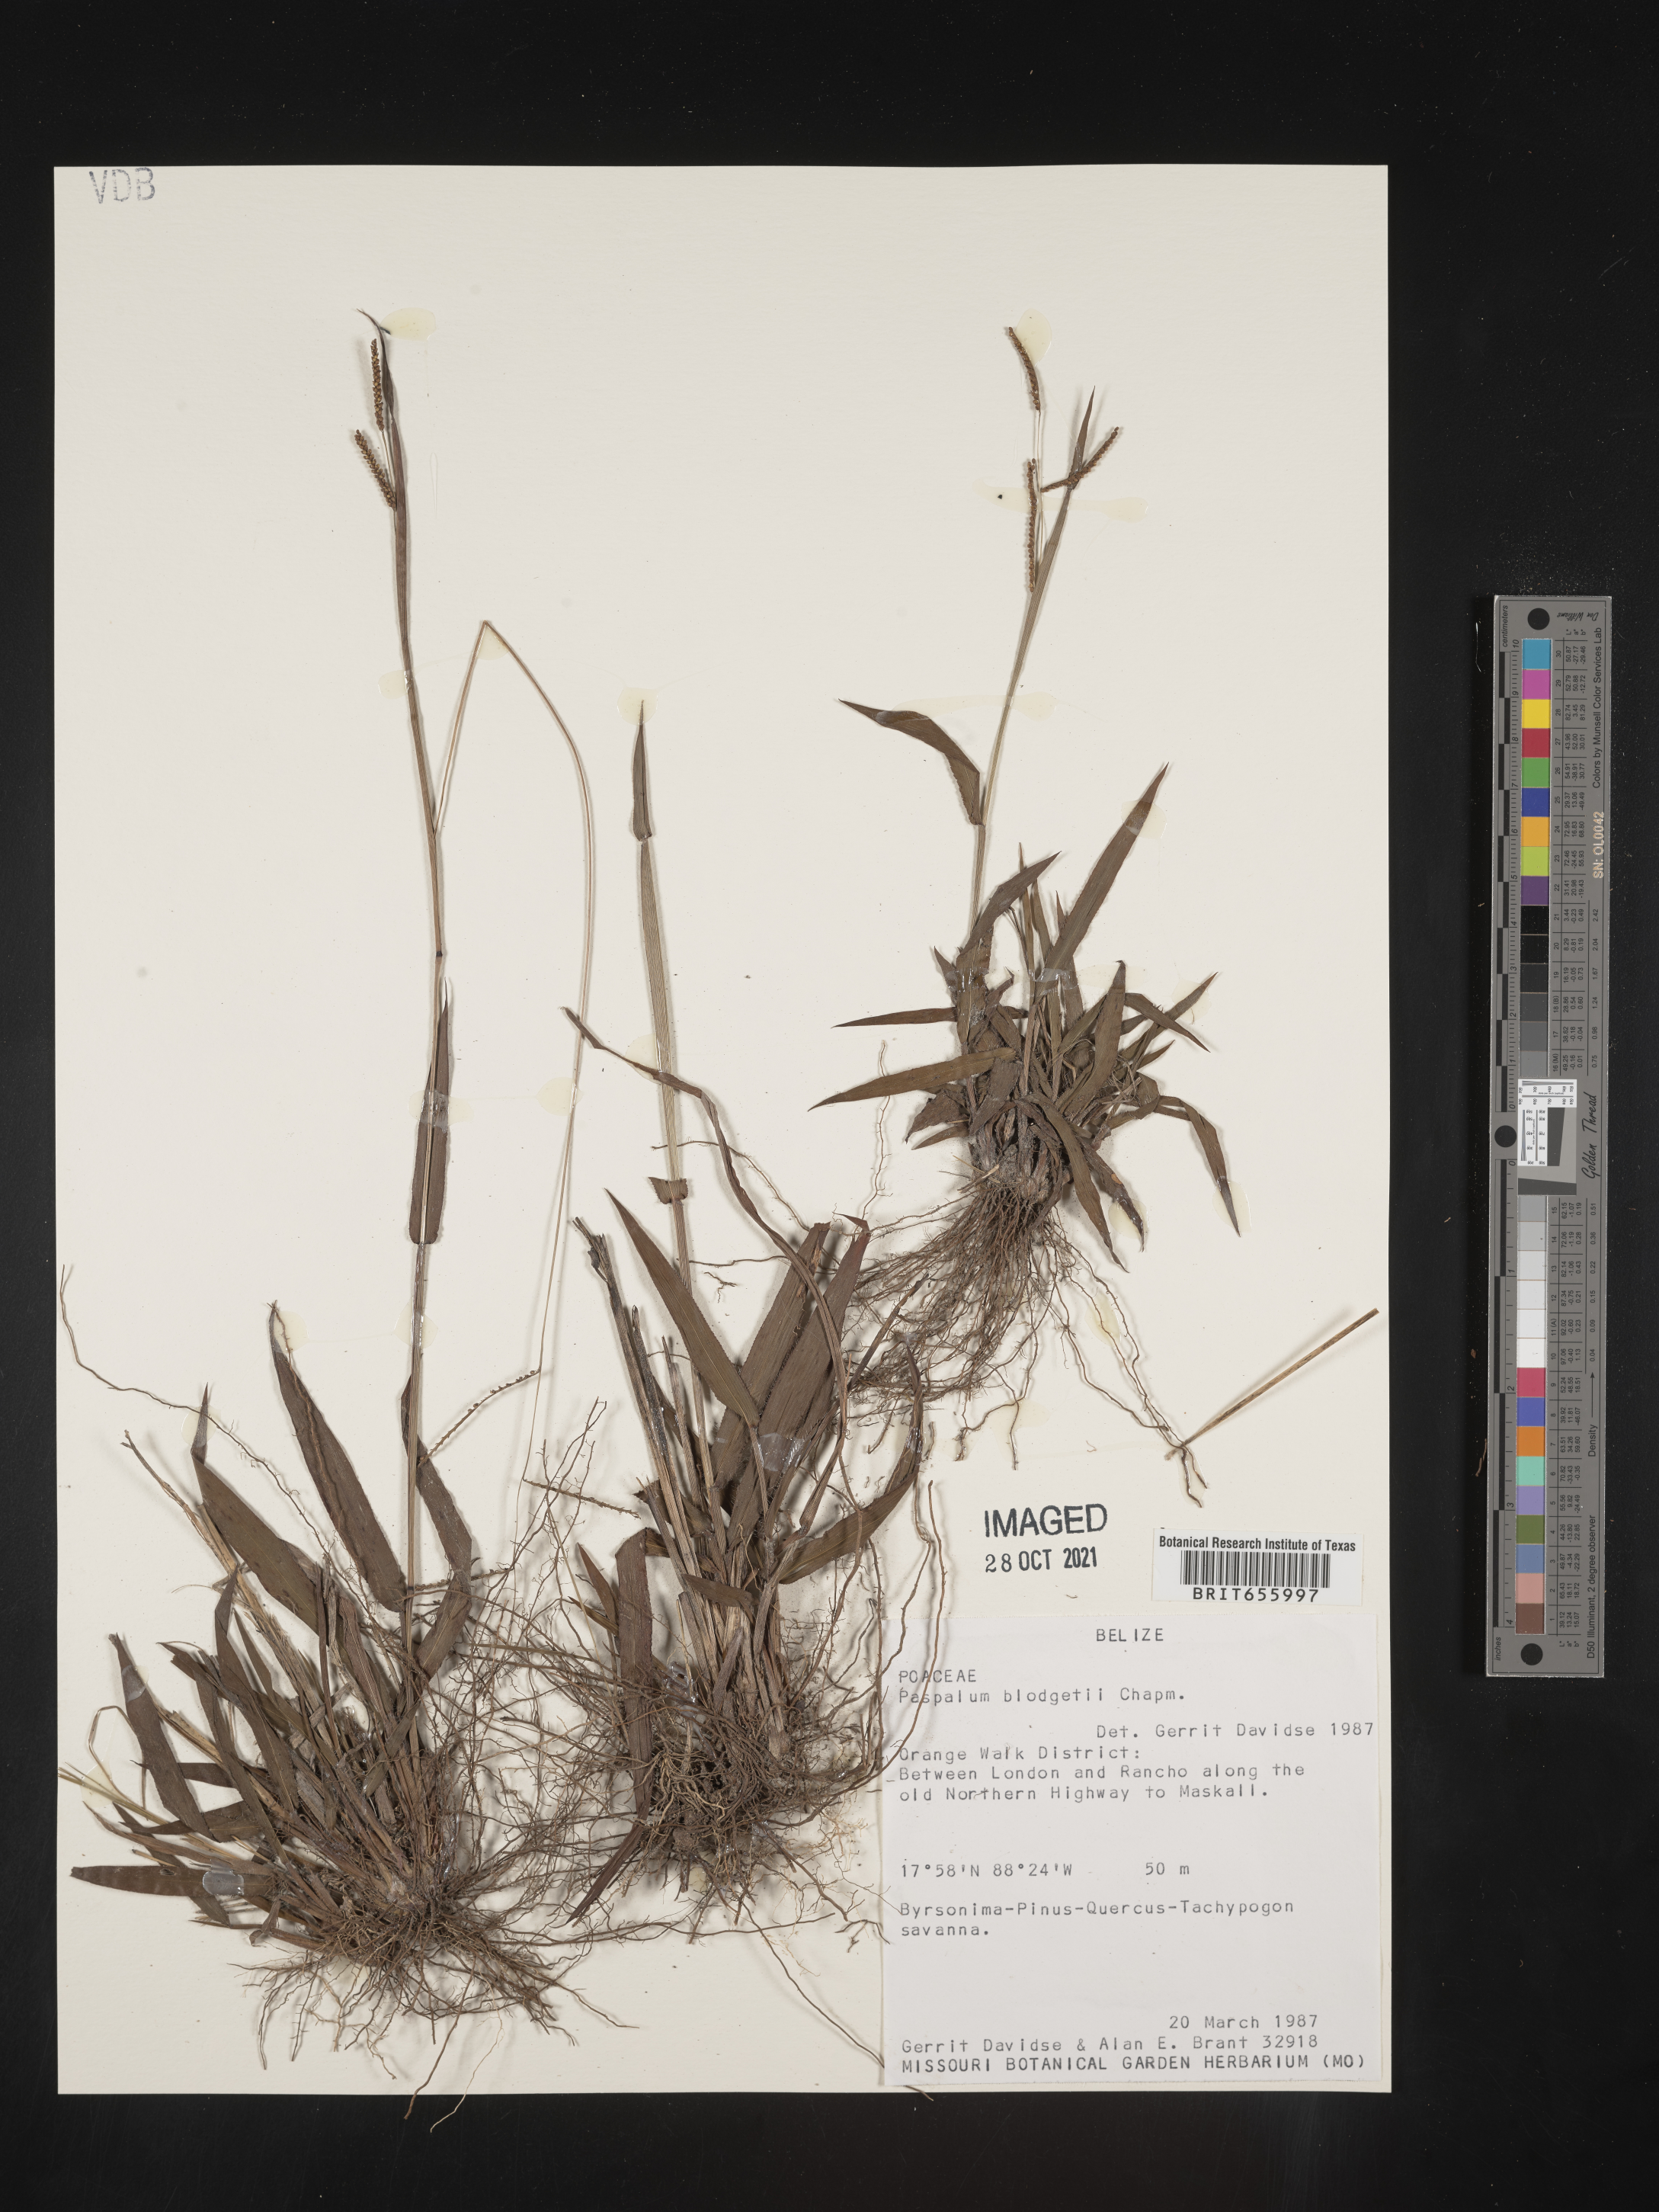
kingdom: Plantae
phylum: Tracheophyta
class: Liliopsida
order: Poales
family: Poaceae
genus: Paspalum
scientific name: Paspalum
